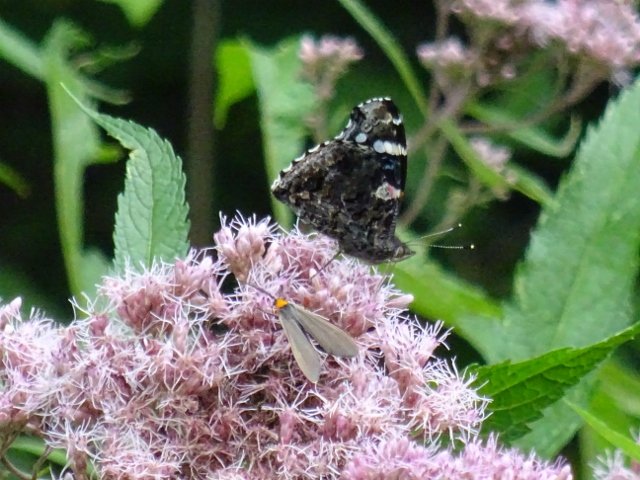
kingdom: Animalia
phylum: Arthropoda
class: Insecta
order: Lepidoptera
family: Nymphalidae
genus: Vanessa
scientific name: Vanessa atalanta
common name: Red Admiral
